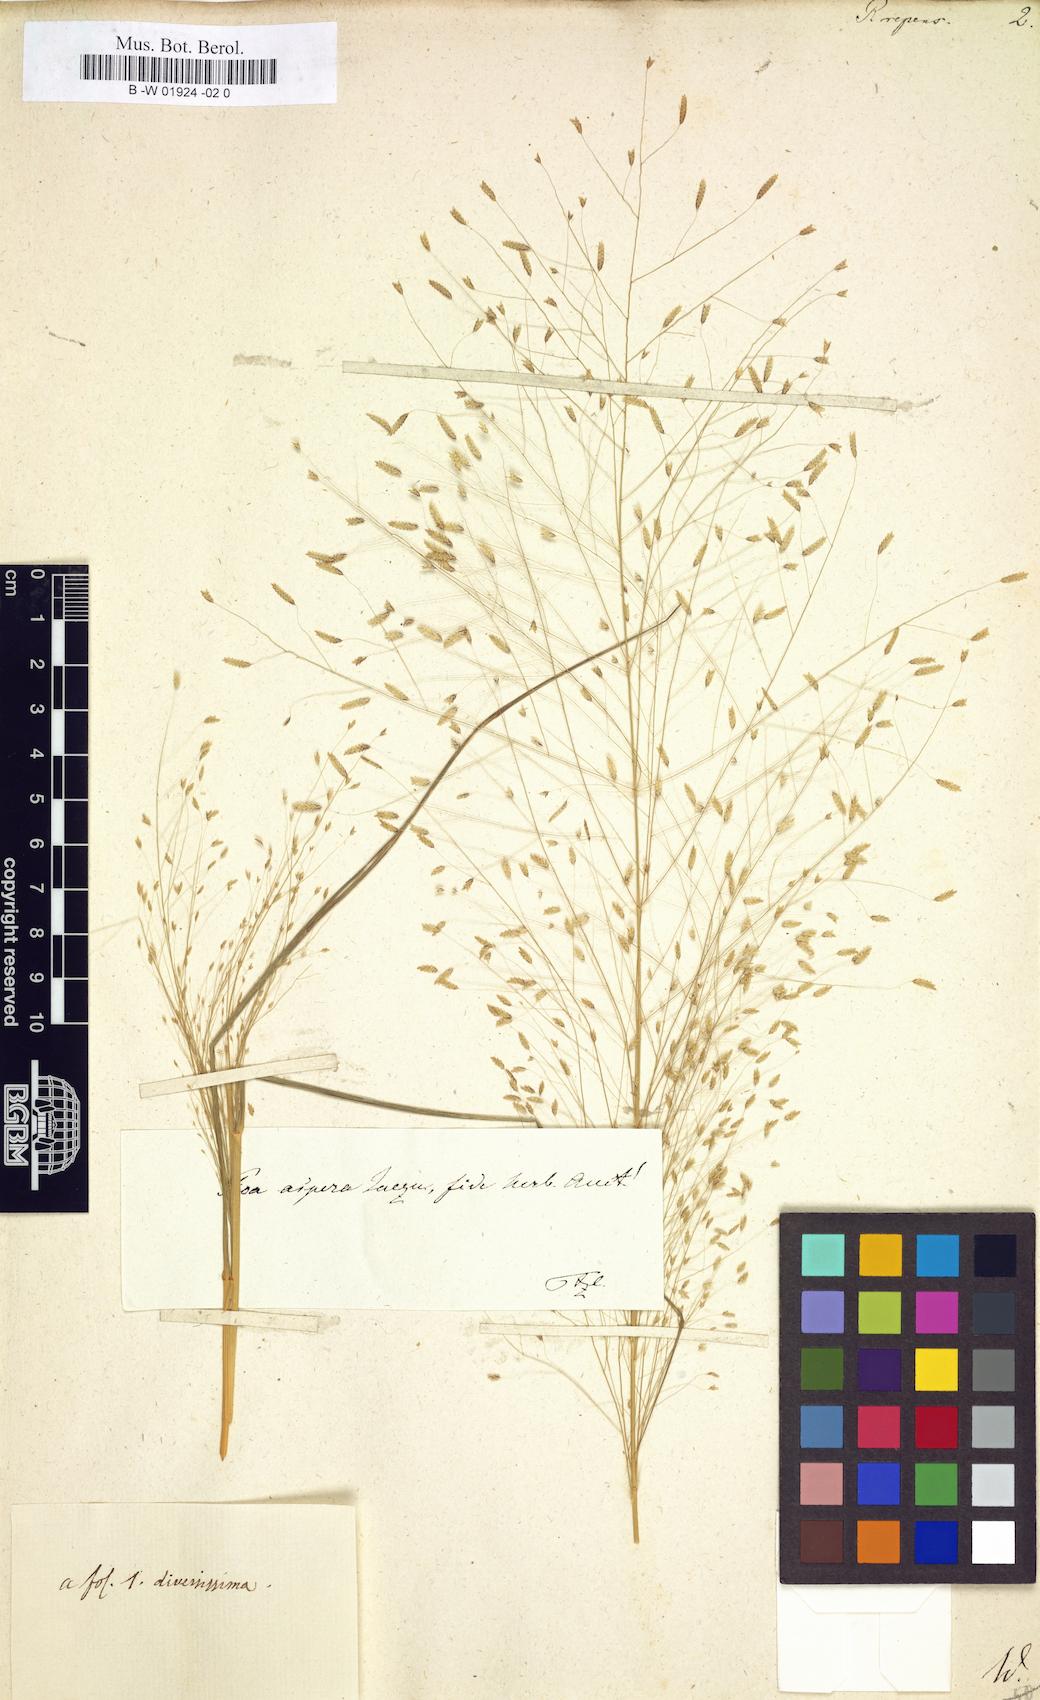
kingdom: Plantae
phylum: Tracheophyta
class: Liliopsida
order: Poales
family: Poaceae
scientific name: Poaceae
